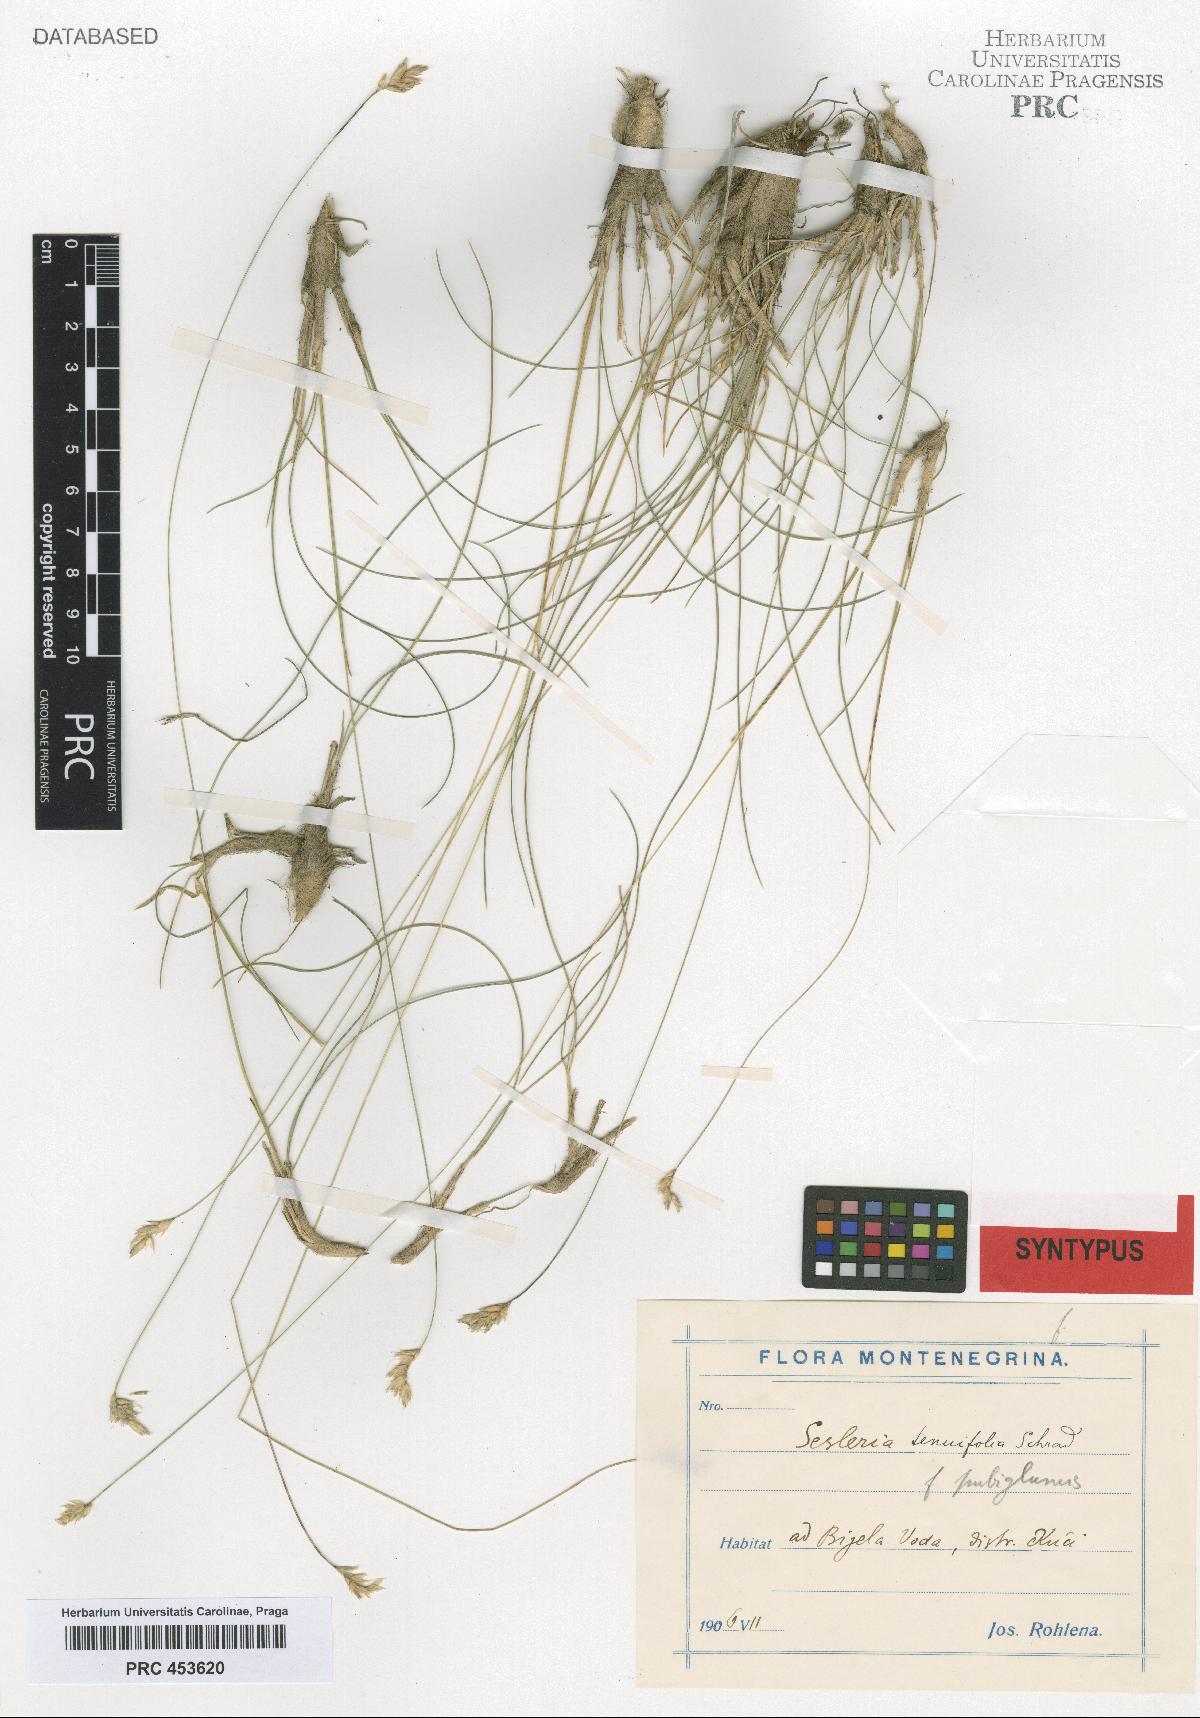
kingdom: Plantae
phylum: Tracheophyta
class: Liliopsida
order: Poales
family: Poaceae
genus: Sesleria
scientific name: Sesleria
